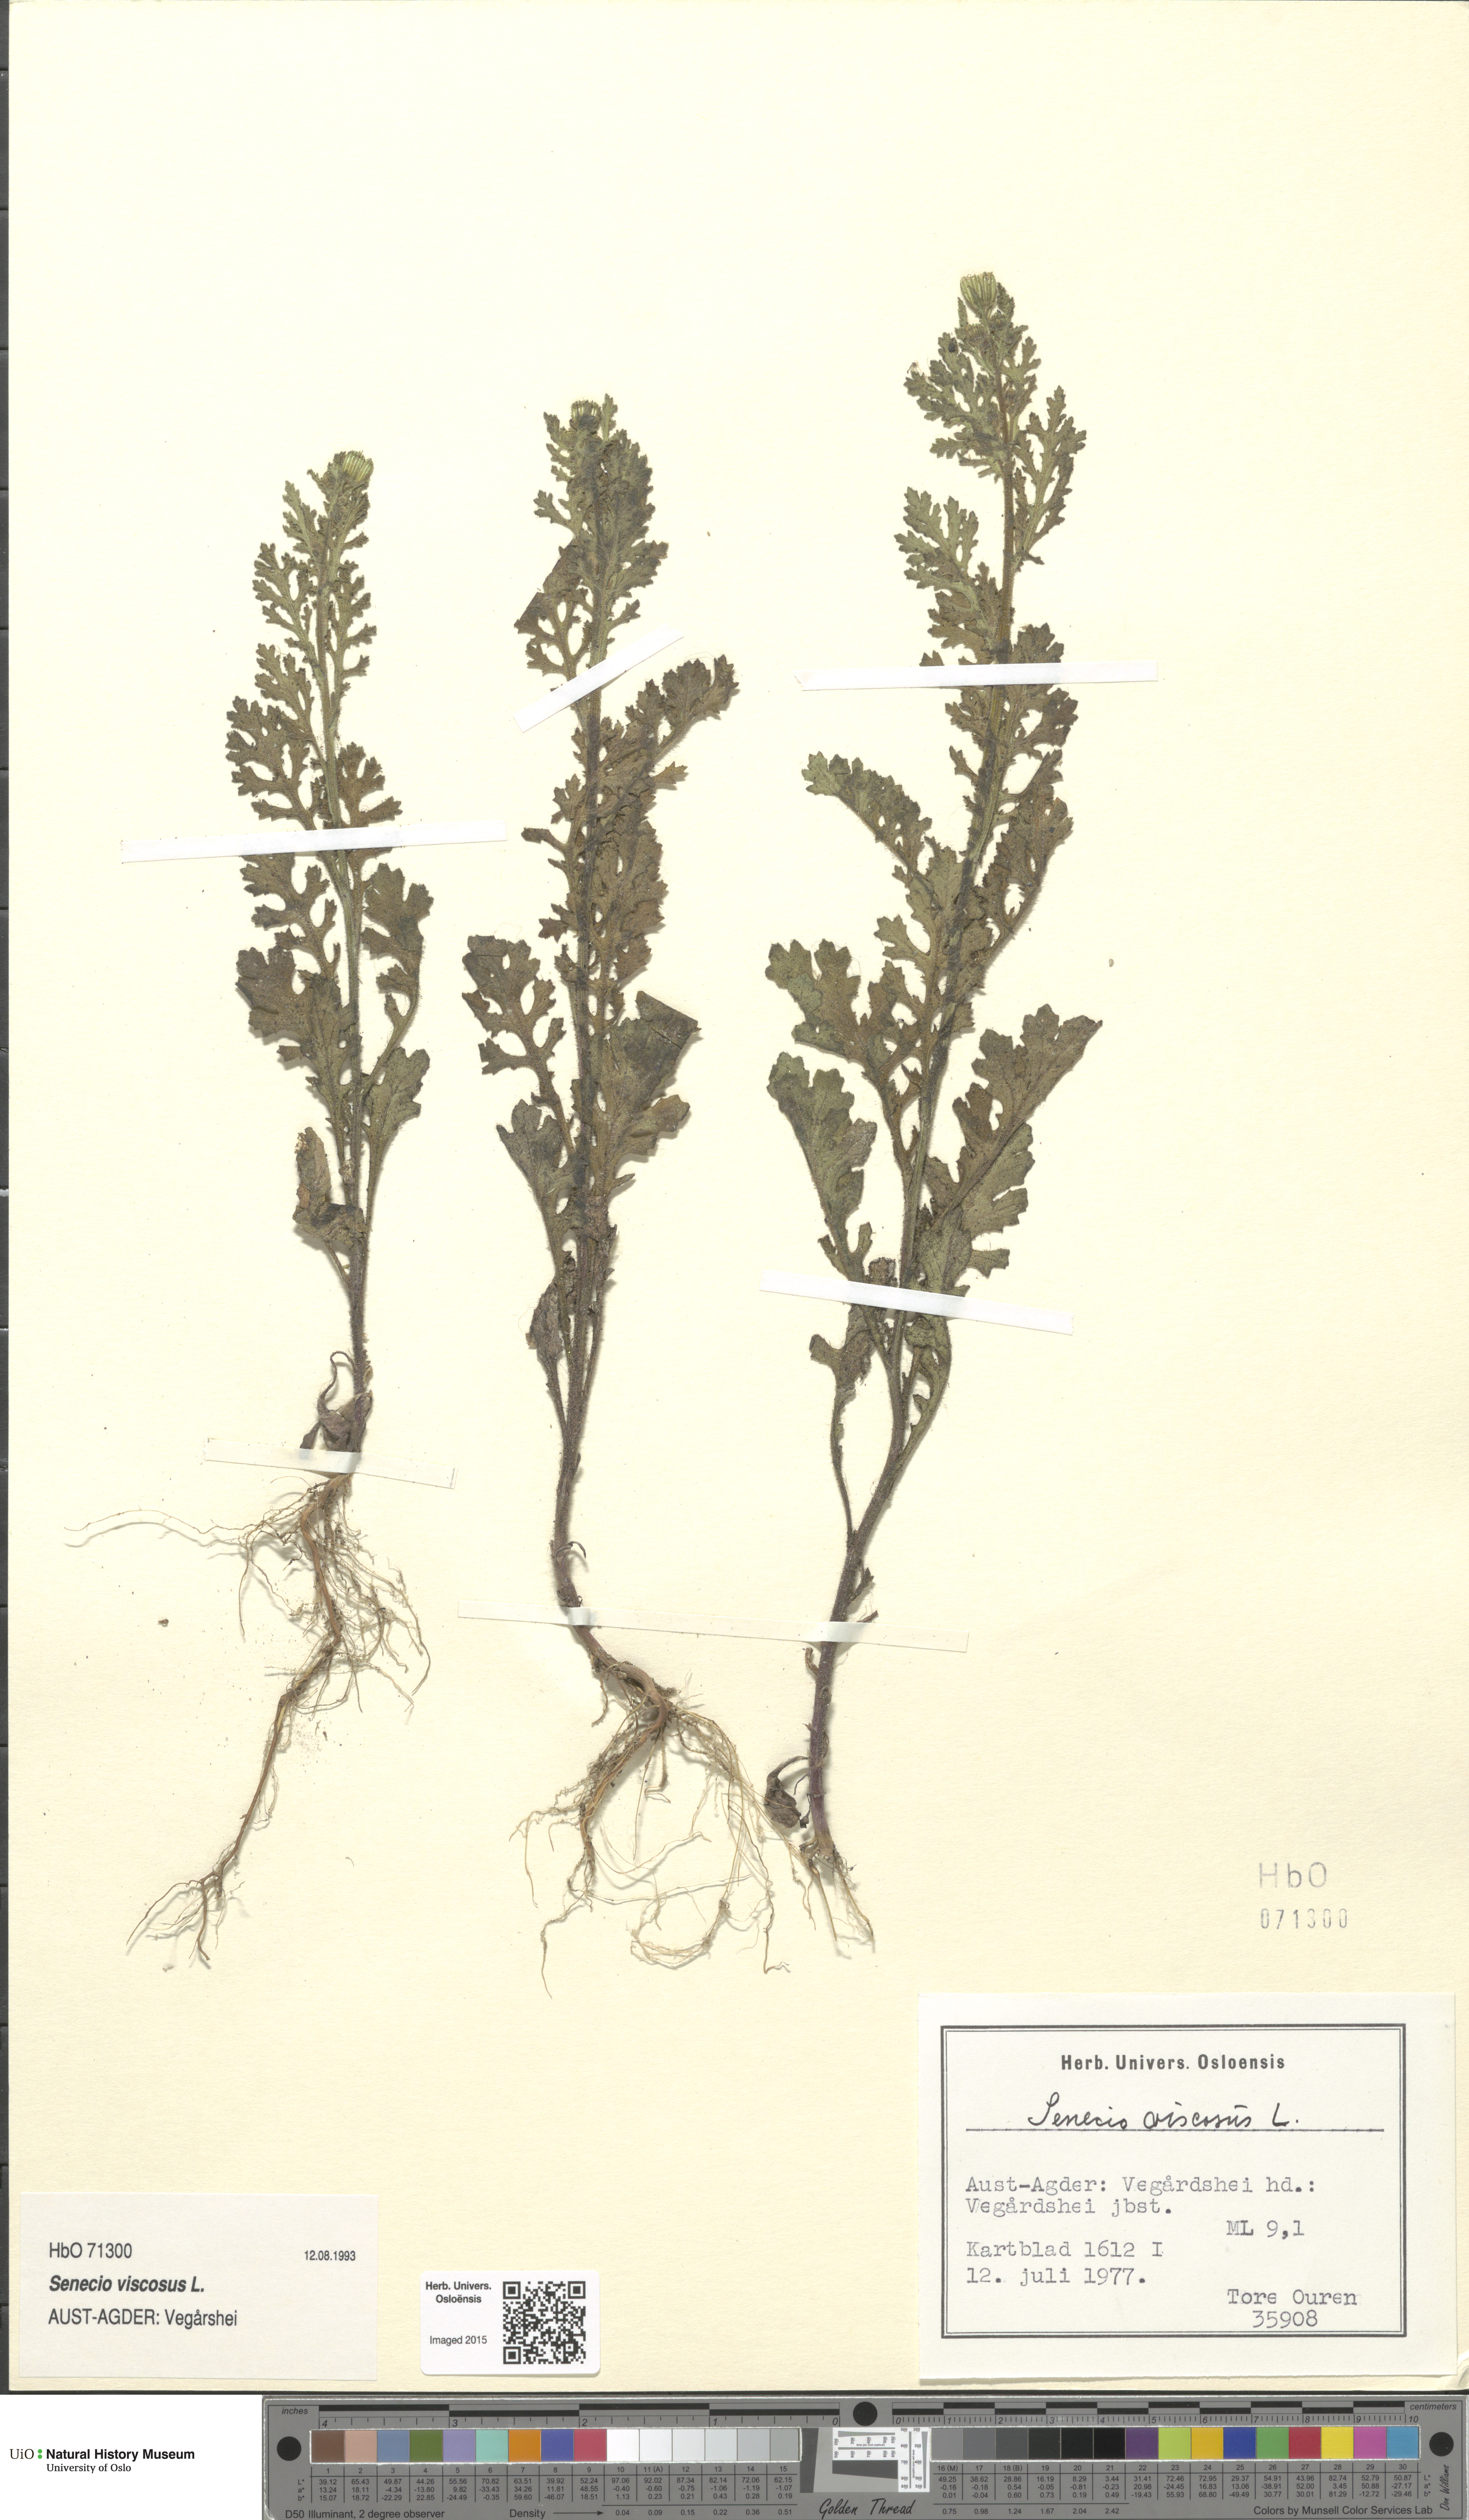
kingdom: Plantae
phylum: Tracheophyta
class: Magnoliopsida
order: Asterales
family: Asteraceae
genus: Senecio
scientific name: Senecio viscosus
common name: Sticky groundsel
